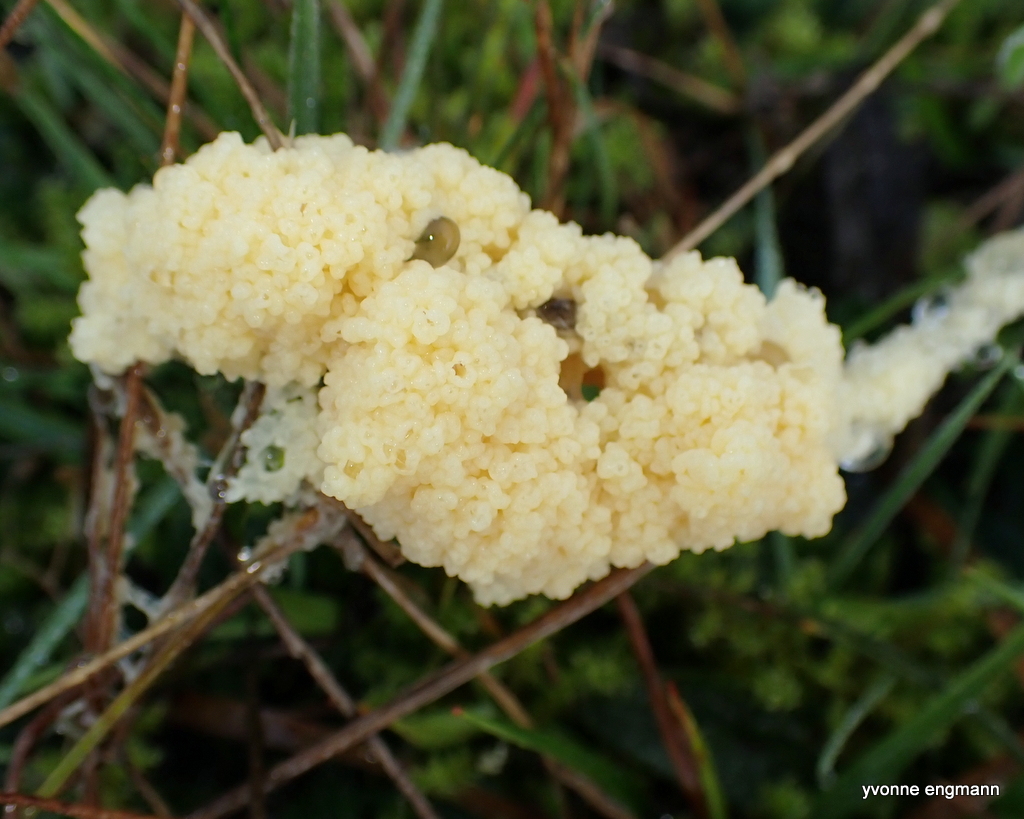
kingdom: Protozoa
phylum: Mycetozoa
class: Myxomycetes
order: Physarales
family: Physaraceae
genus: Didymium
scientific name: Didymium
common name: urteskum
